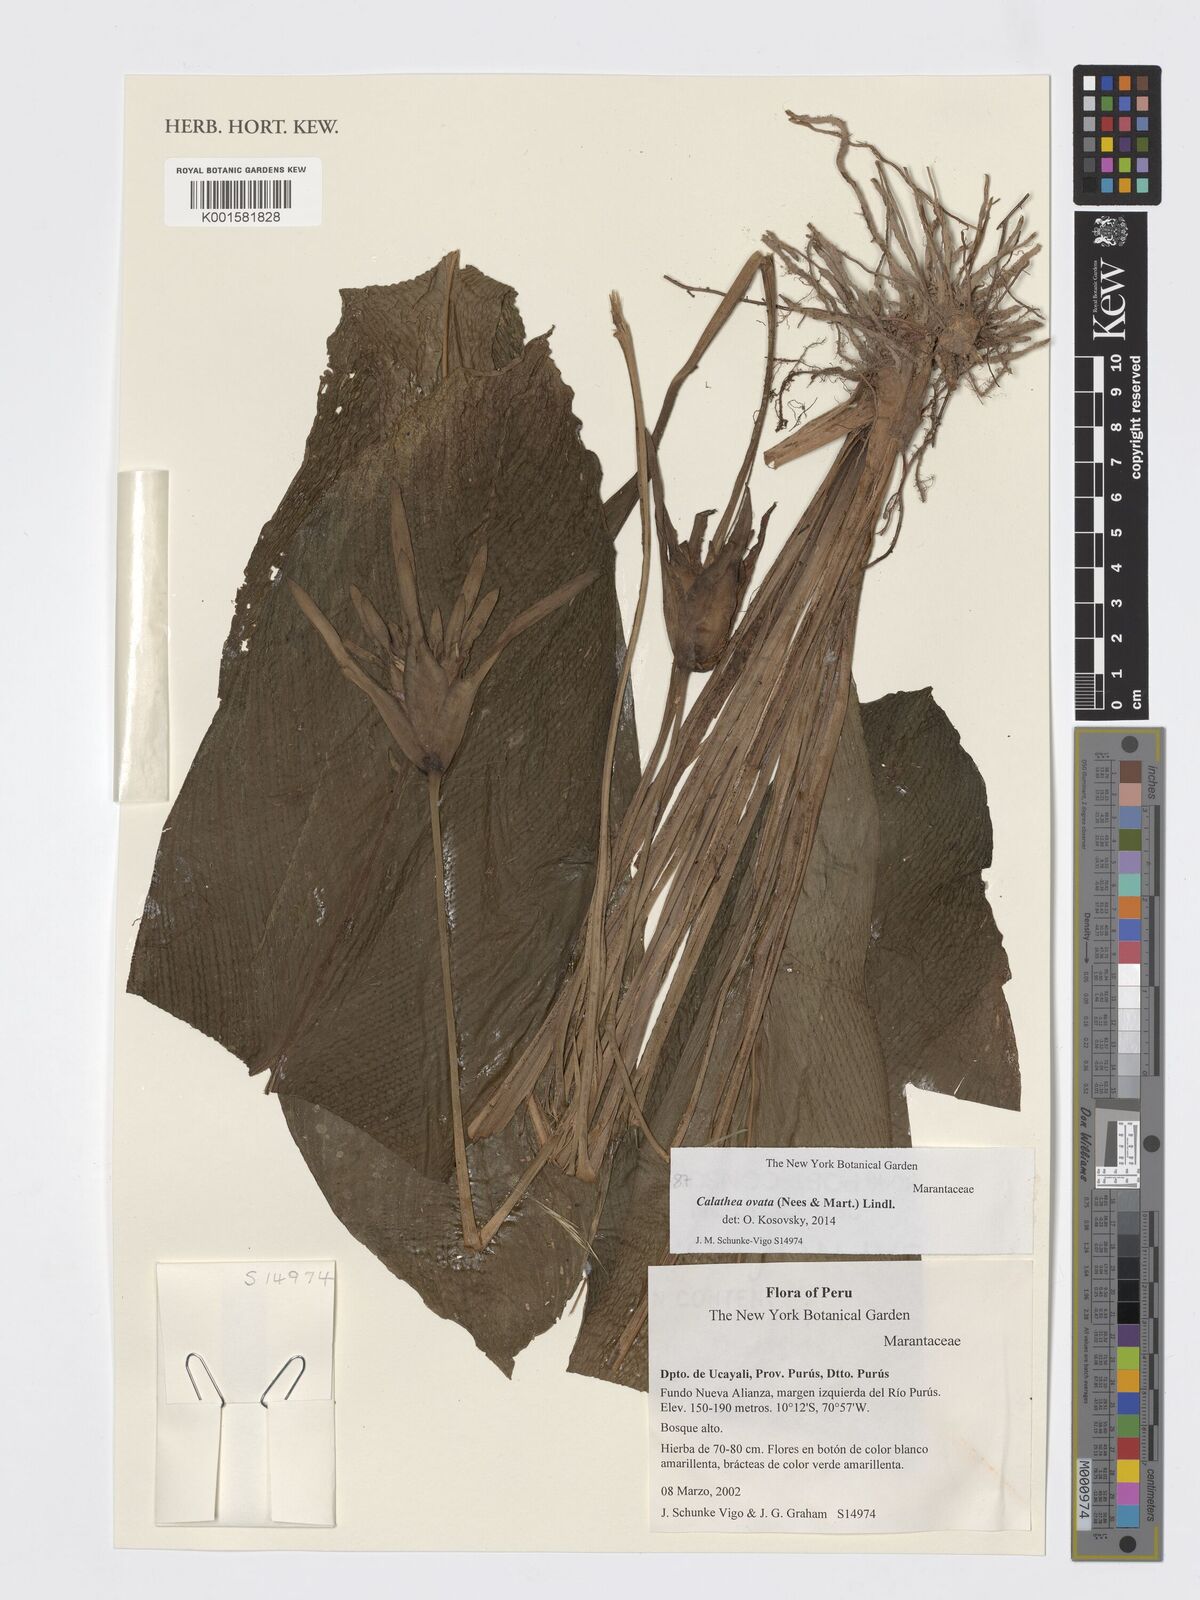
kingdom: Plantae
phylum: Tracheophyta
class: Liliopsida
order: Zingiberales
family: Marantaceae
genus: Goeppertia
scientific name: Goeppertia ovata
